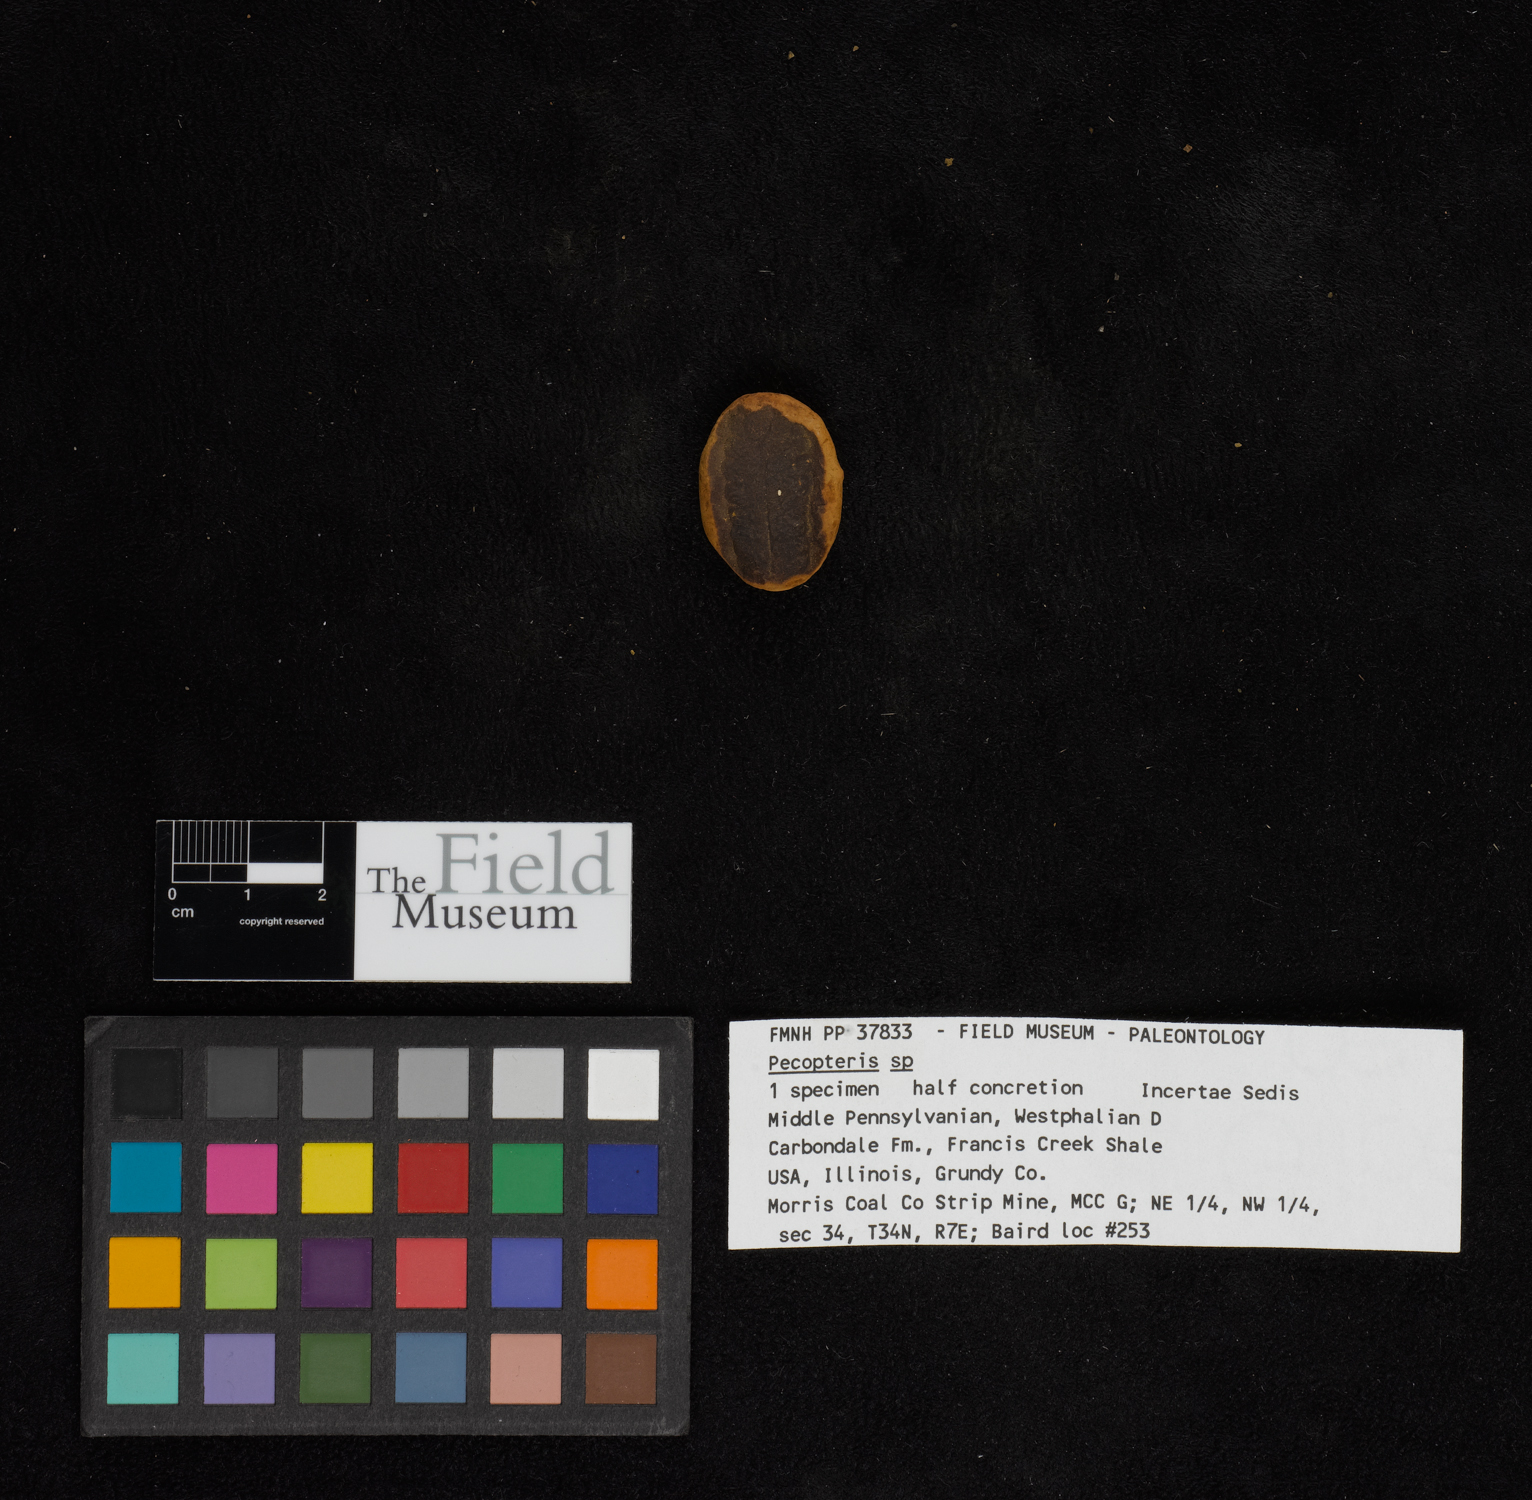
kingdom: Plantae
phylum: Tracheophyta
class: Polypodiopsida
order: Marattiales
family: Asterothecaceae
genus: Pecopteris
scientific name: Pecopteris
